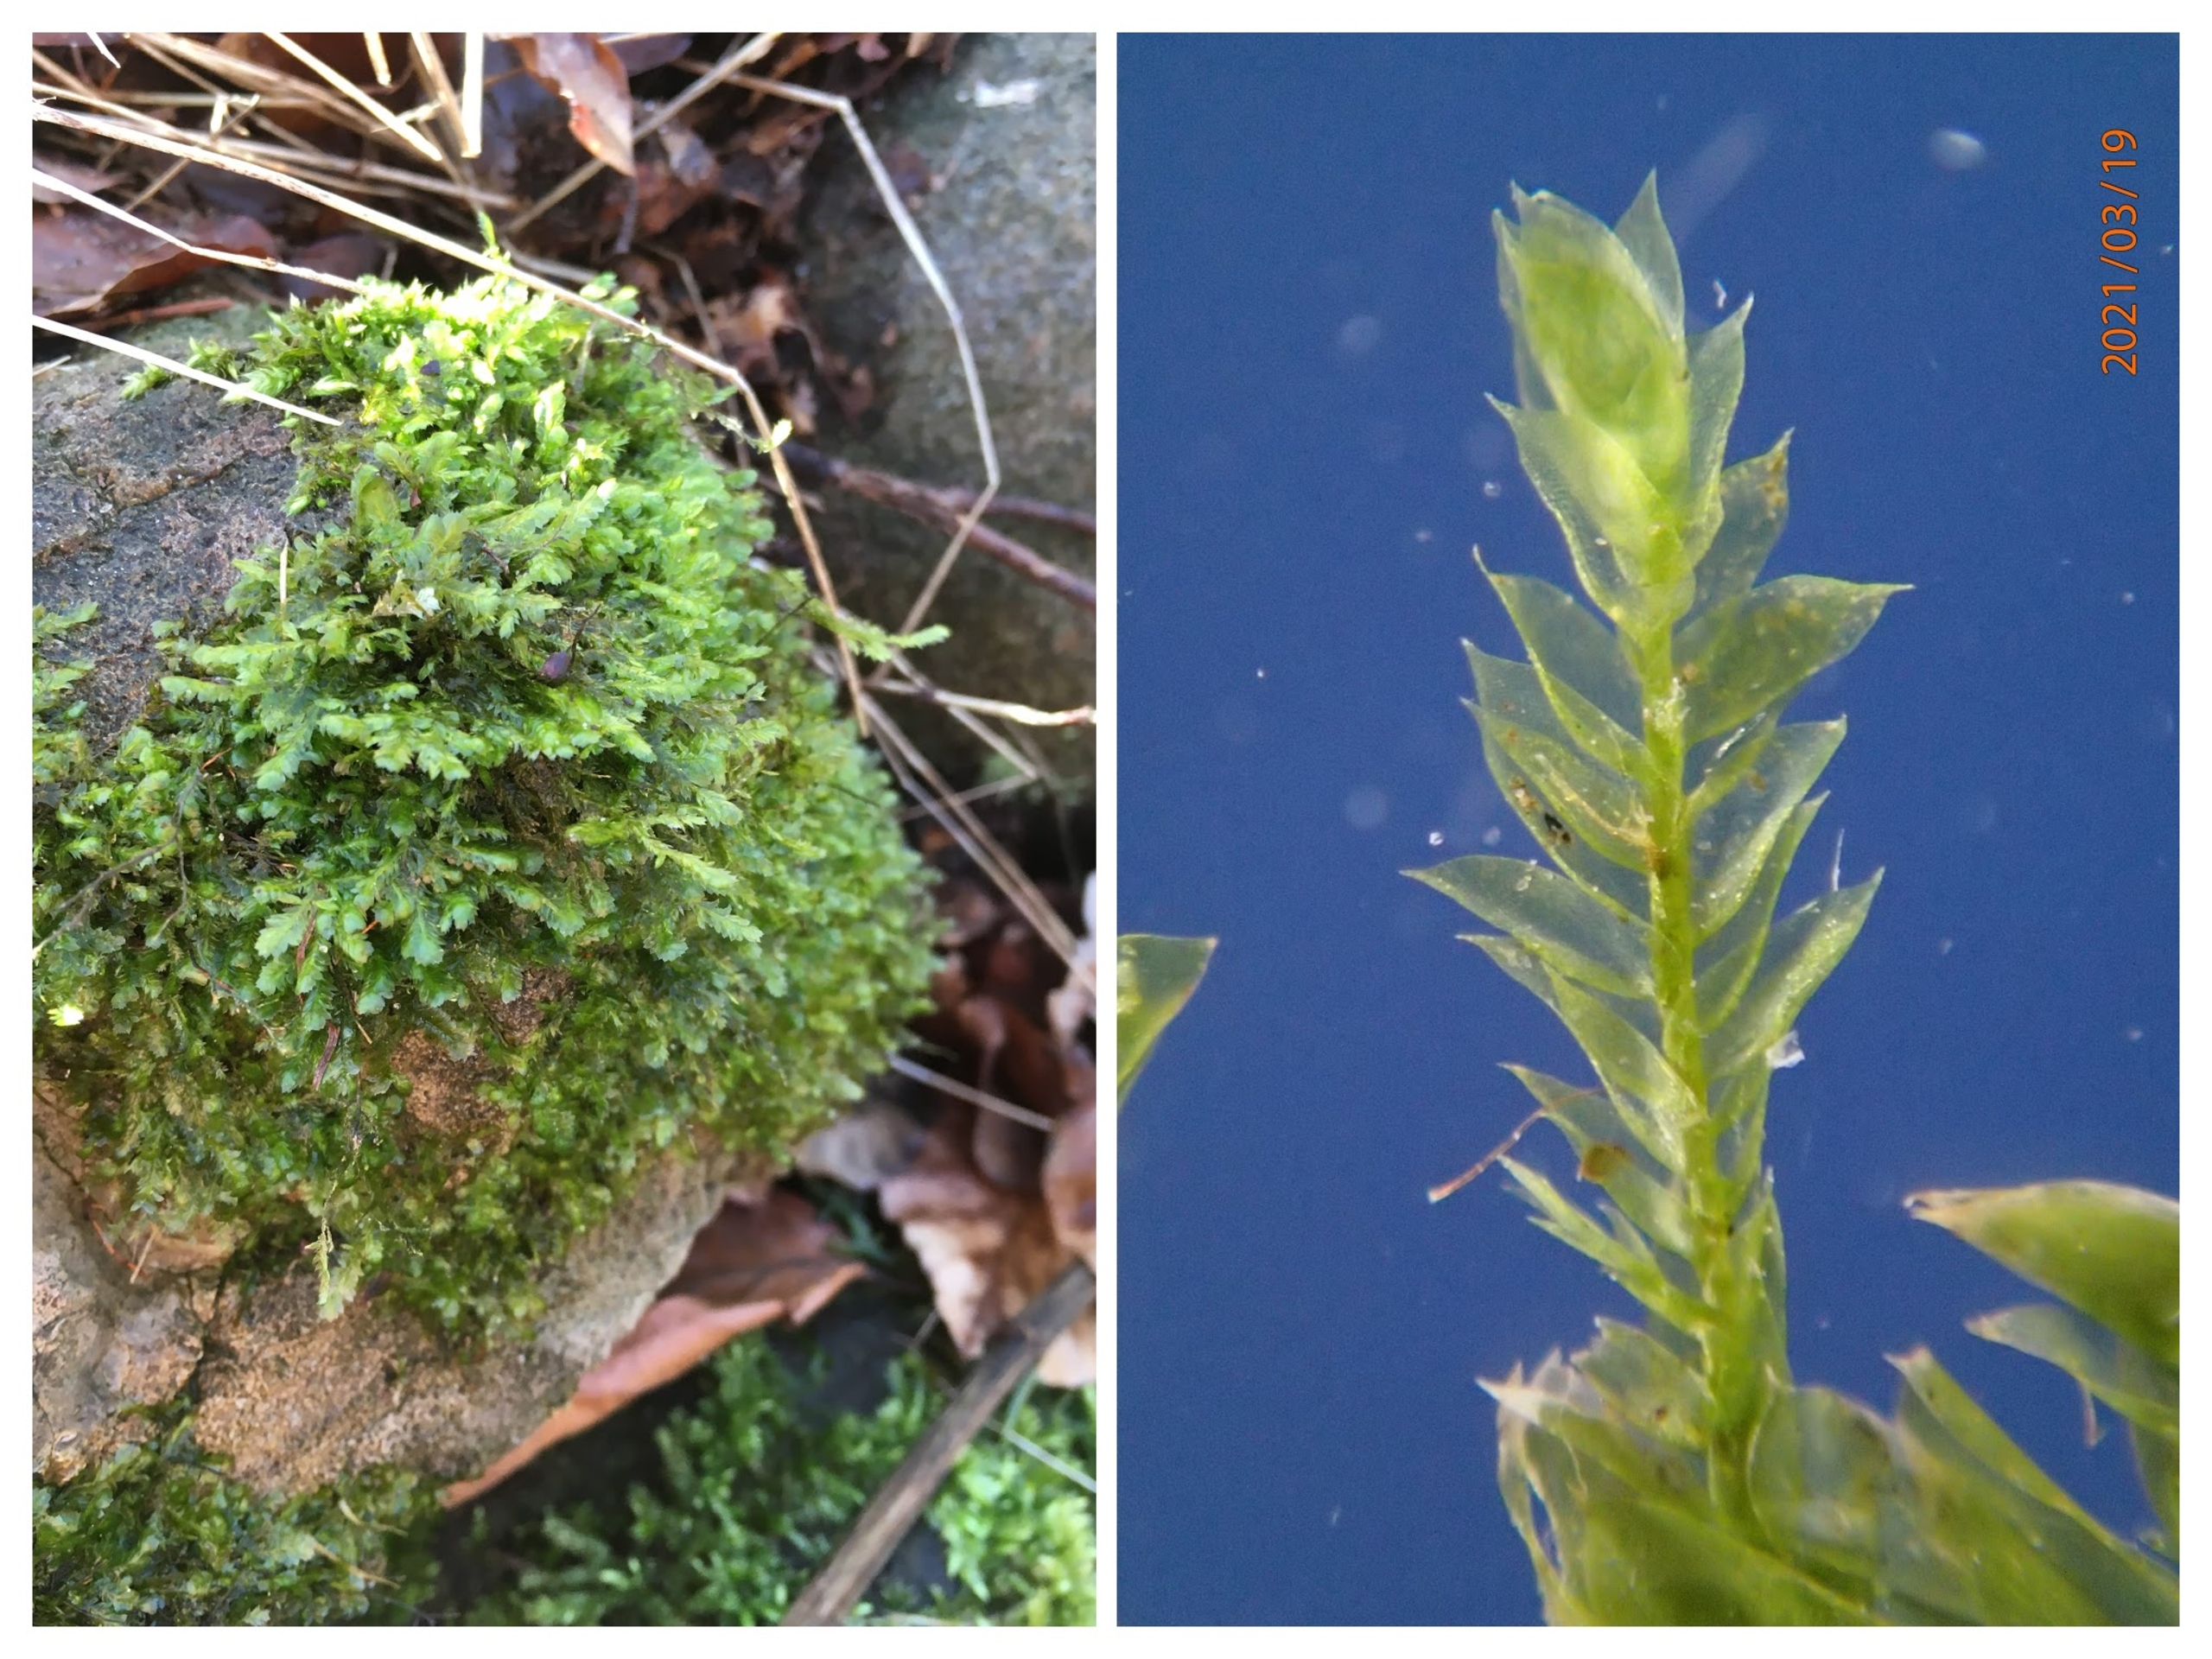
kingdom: Plantae
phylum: Bryophyta
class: Bryopsida
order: Hypnales
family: Neckeraceae
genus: Alleniella
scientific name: Alleniella complanata
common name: Almindelig fladmos
